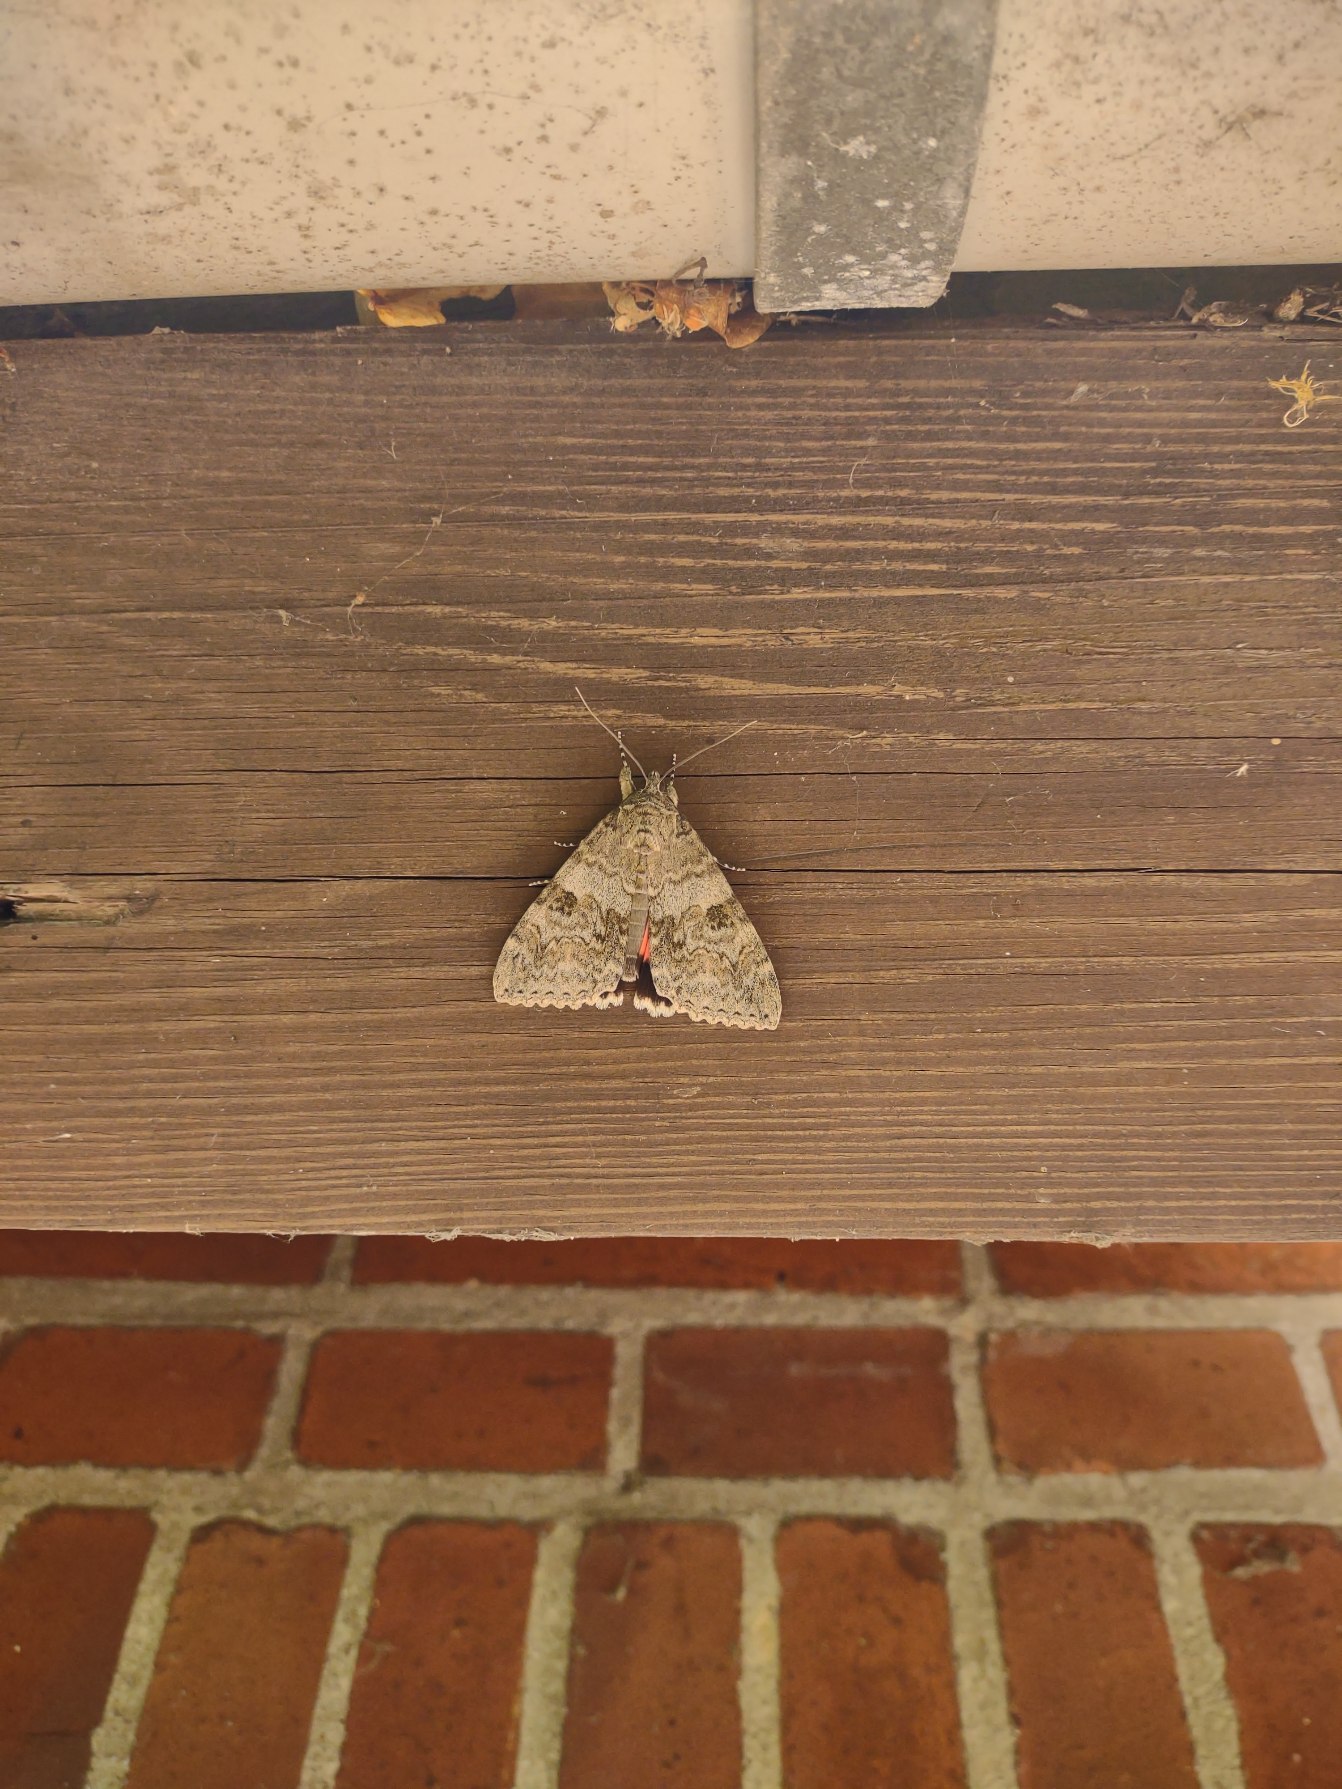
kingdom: Animalia
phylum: Arthropoda
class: Insecta
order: Lepidoptera
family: Erebidae
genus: Catocala
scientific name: Catocala nupta
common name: Rødt ordensbånd
